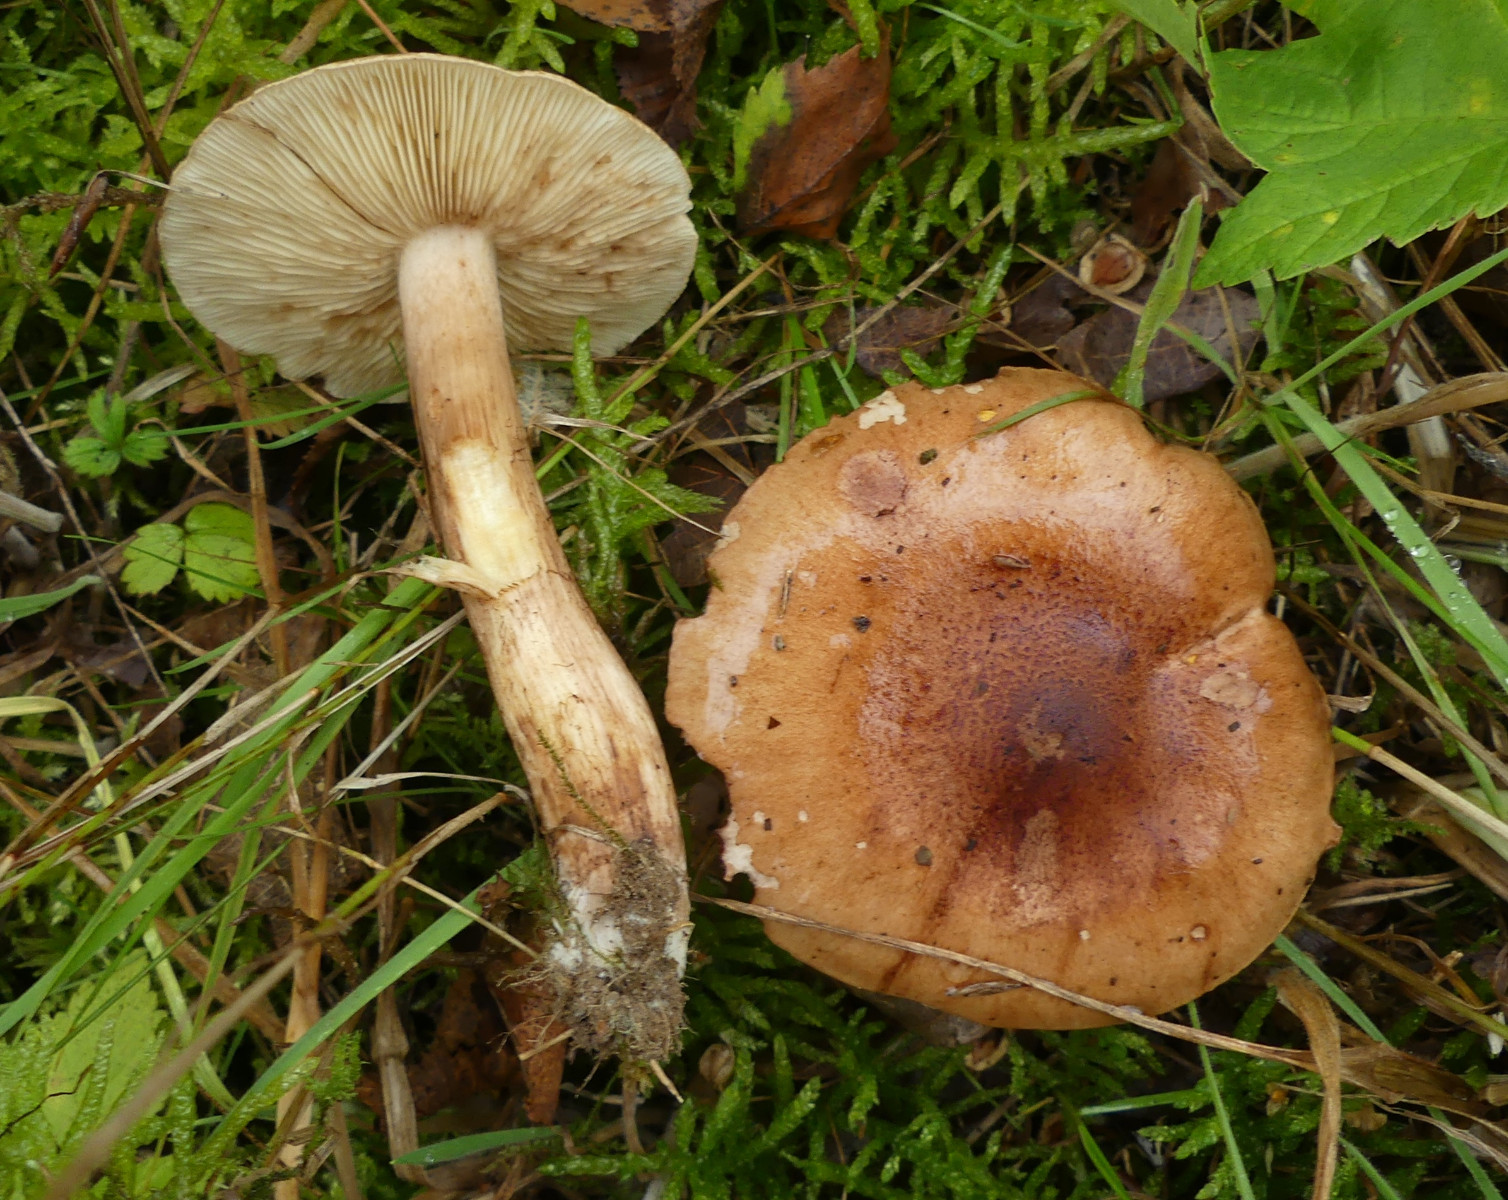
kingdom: Fungi
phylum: Basidiomycota
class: Agaricomycetes
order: Agaricales
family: Tricholomataceae
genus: Tricholoma
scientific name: Tricholoma fulvum
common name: birke-ridderhat
